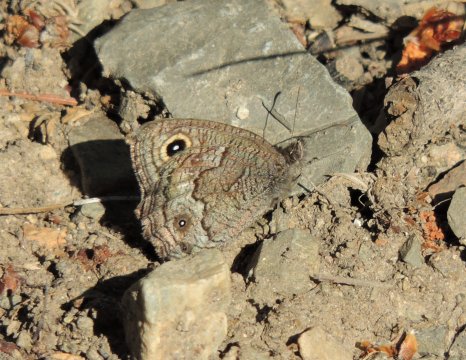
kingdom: Animalia
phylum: Arthropoda
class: Insecta
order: Lepidoptera
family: Nymphalidae
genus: Cercyonis
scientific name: Cercyonis sthenele
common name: Great Basin Wood-Nymph
